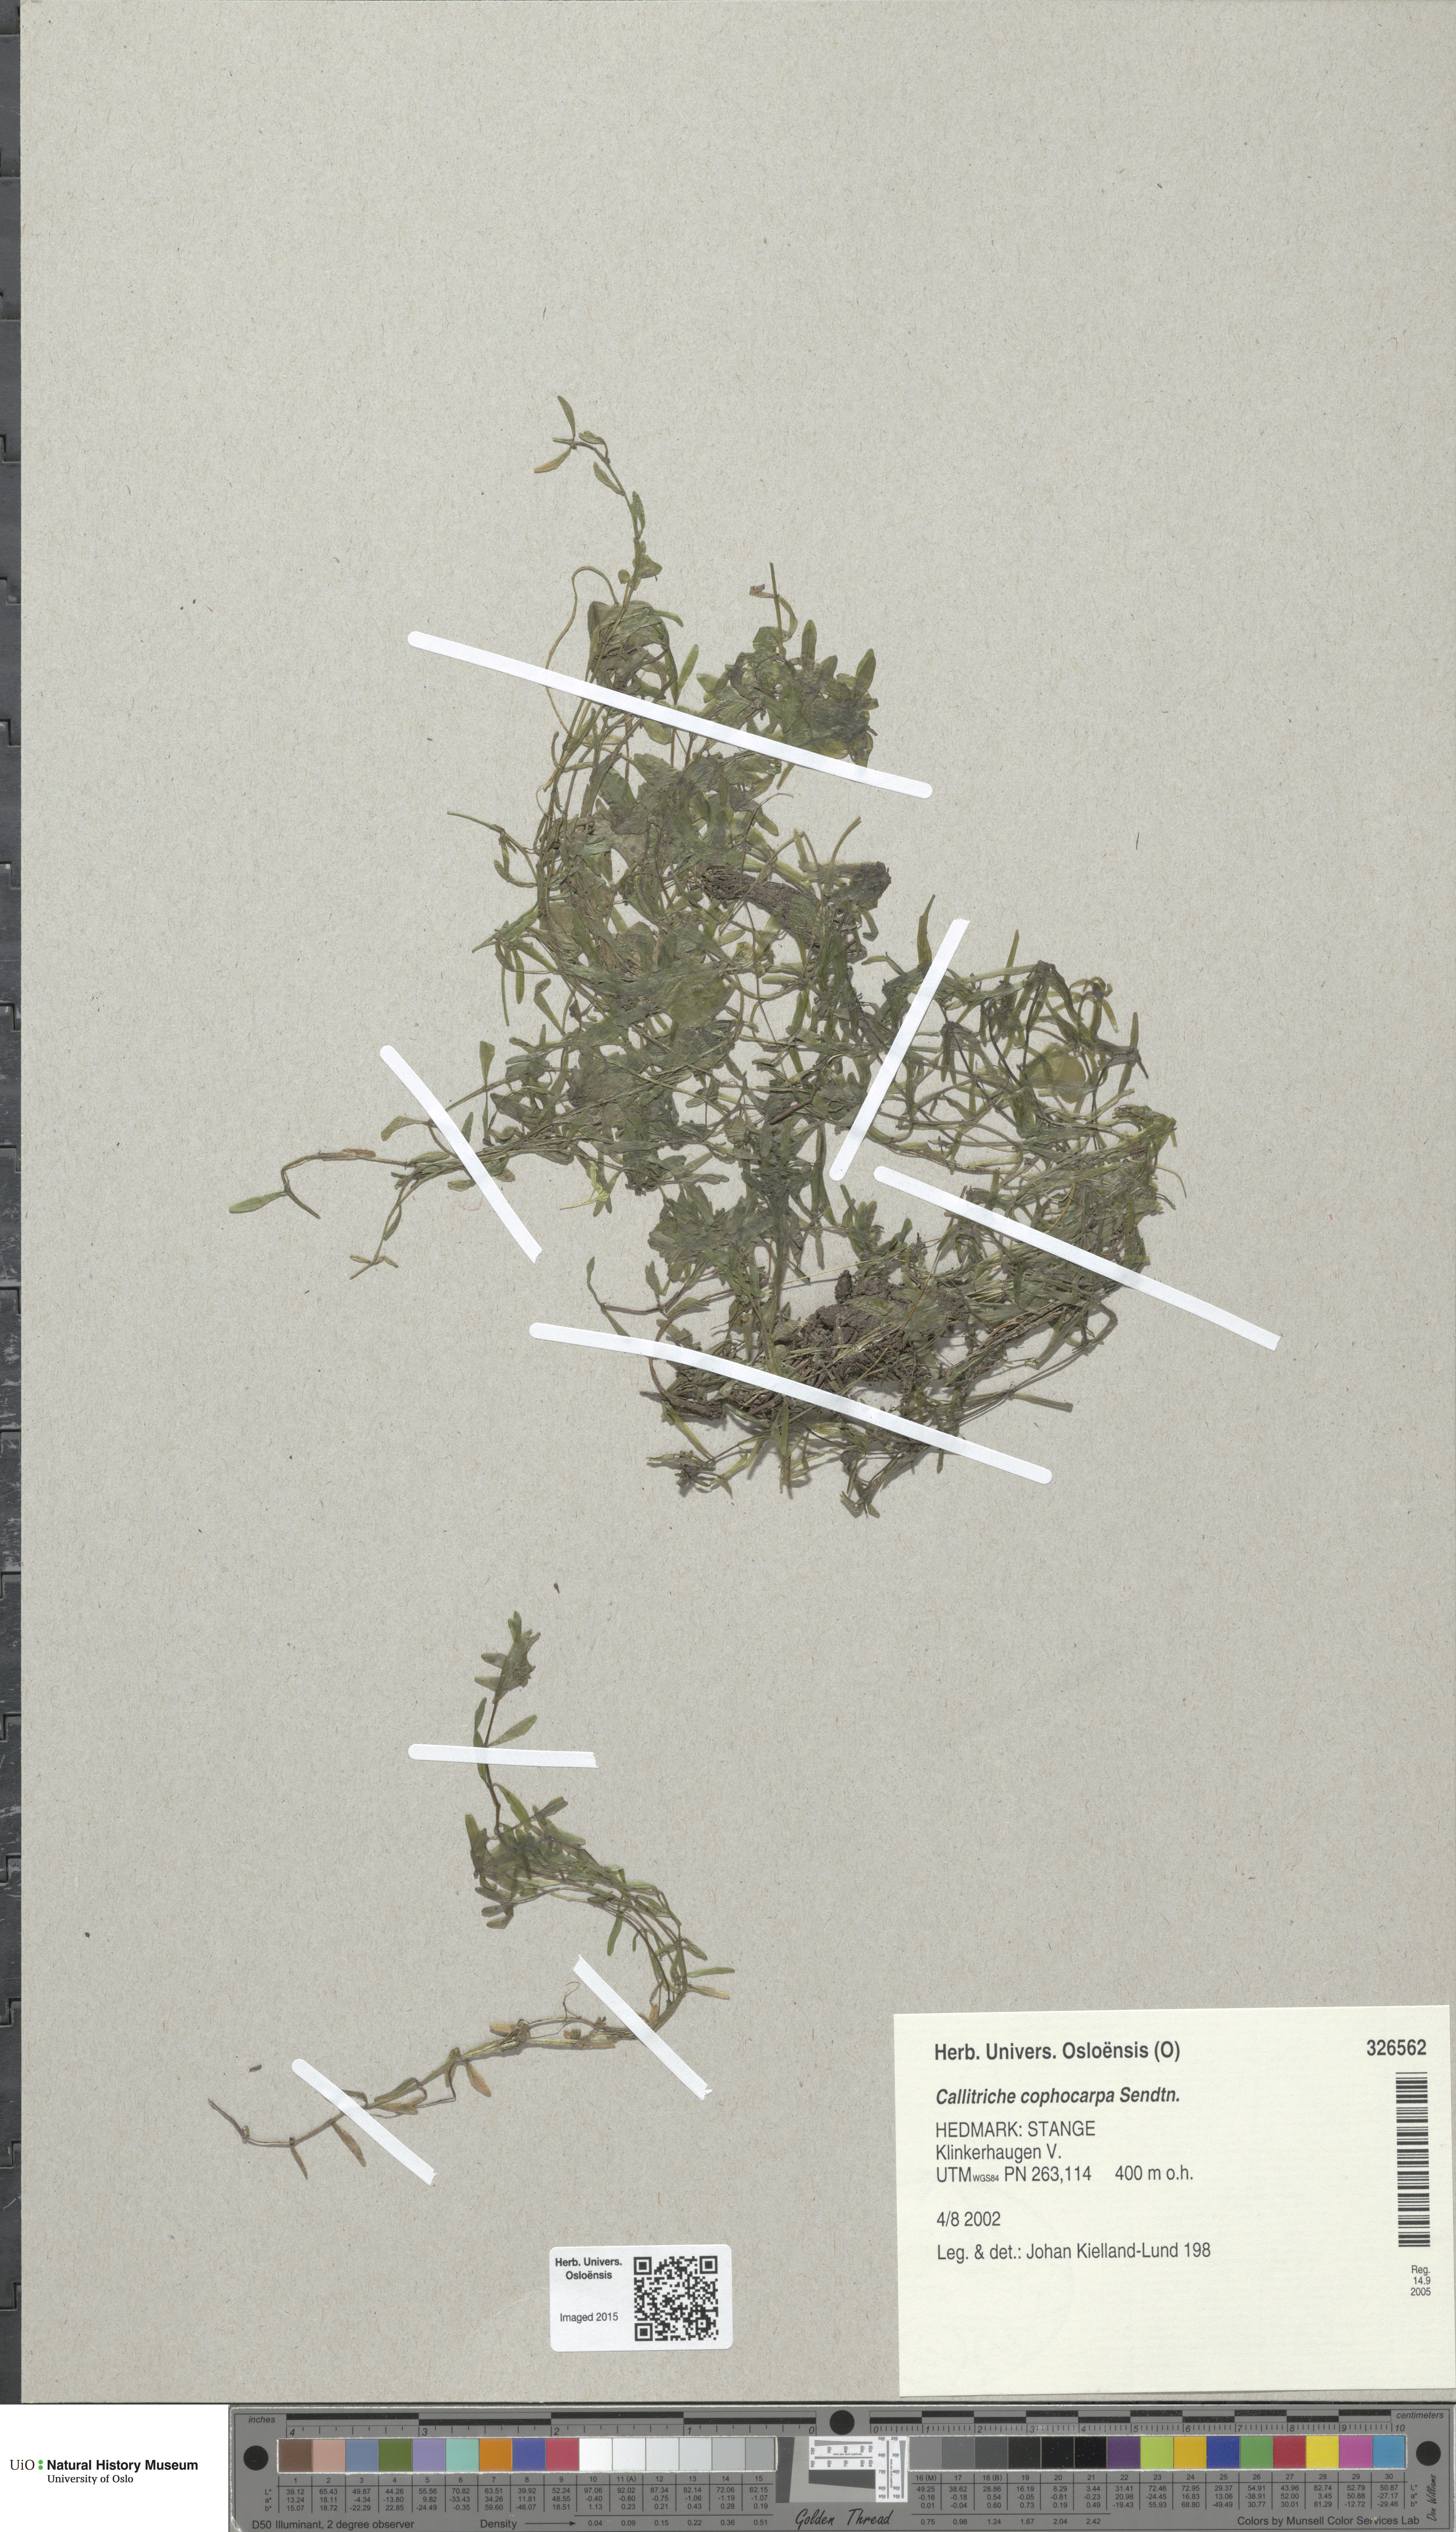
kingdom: Plantae
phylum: Tracheophyta
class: Magnoliopsida
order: Lamiales
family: Plantaginaceae
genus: Callitriche
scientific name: Callitriche cophocarpa
